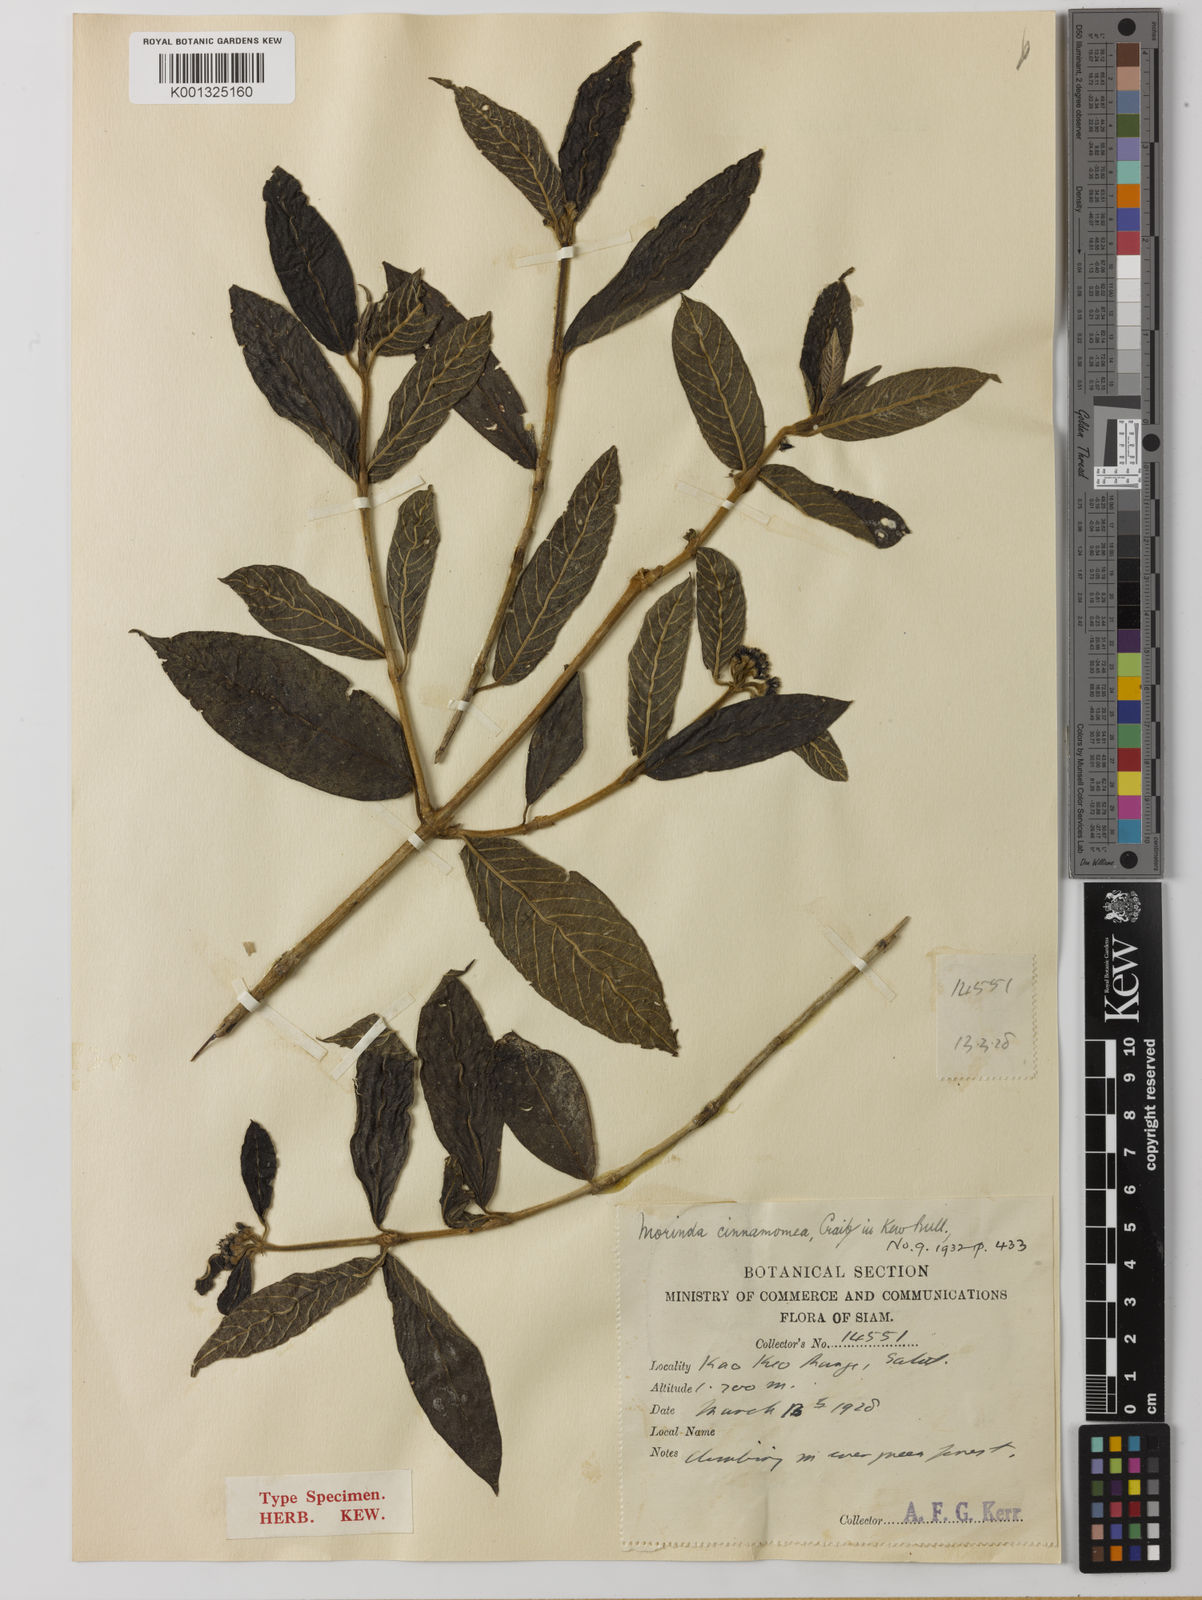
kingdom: Plantae
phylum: Tracheophyta
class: Magnoliopsida
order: Gentianales
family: Rubiaceae
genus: Gynochthodes
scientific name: Gynochthodes villosa
